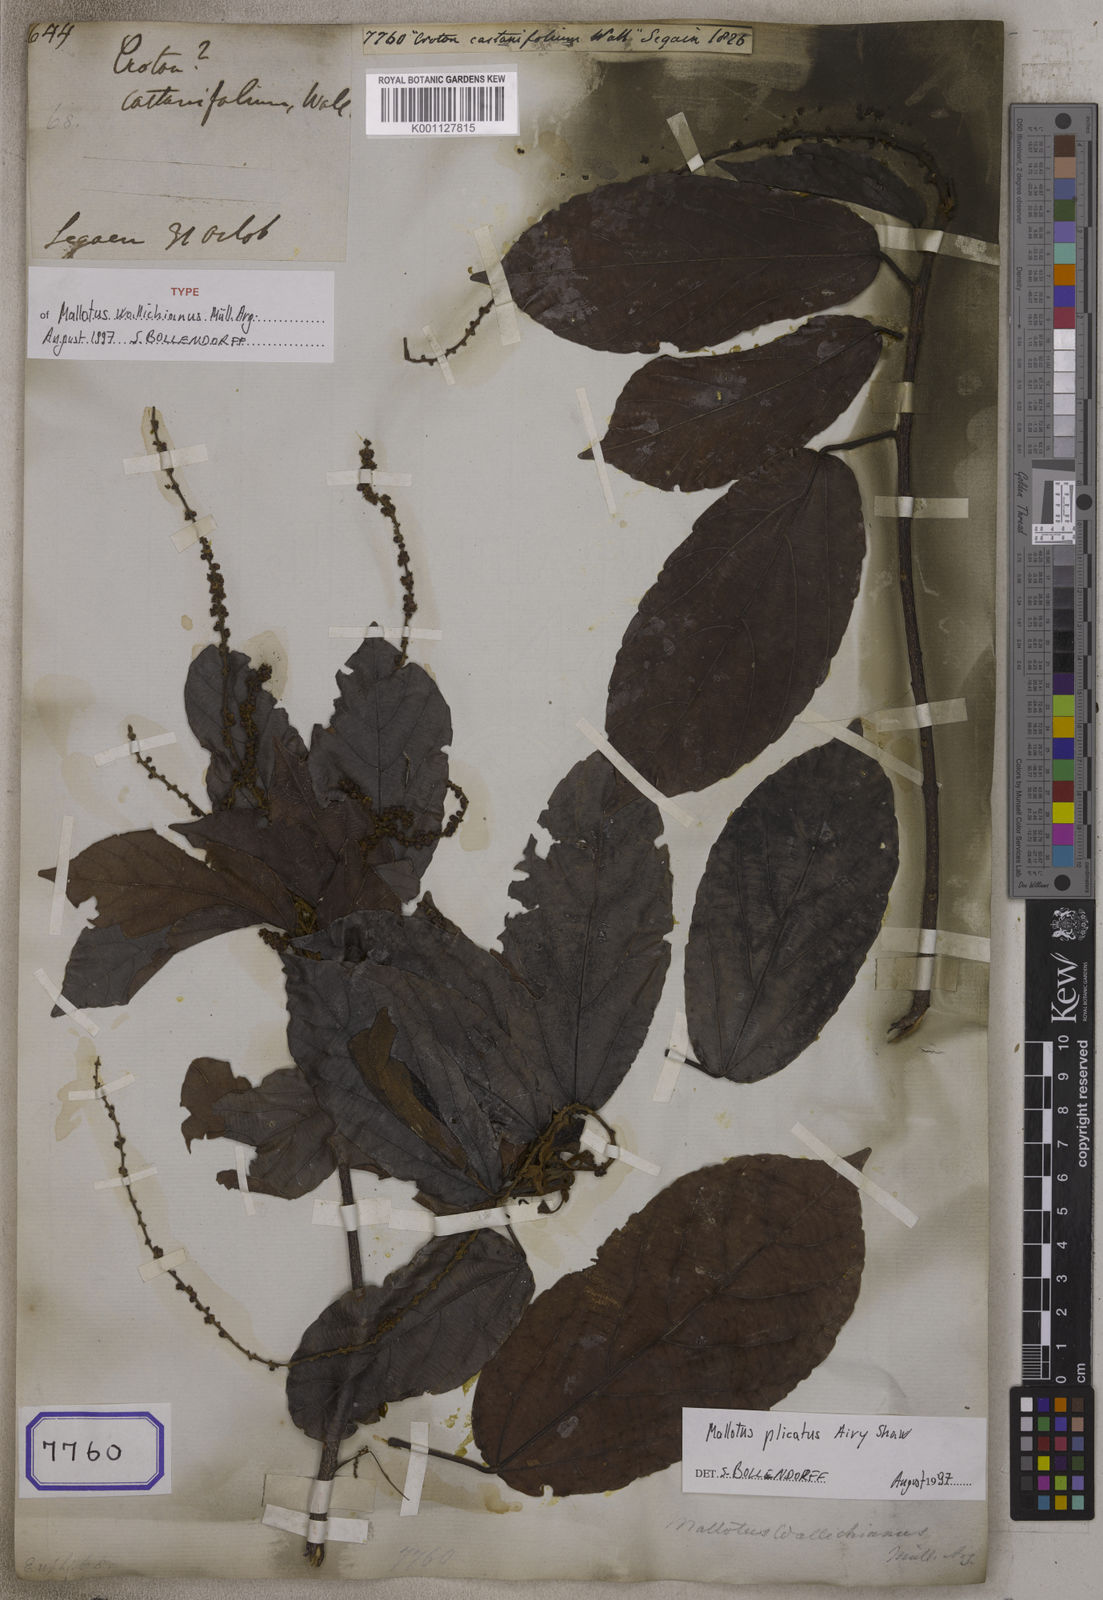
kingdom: Plantae
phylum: Tracheophyta
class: Magnoliopsida
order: Malpighiales
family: Euphorbiaceae
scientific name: Euphorbiaceae
